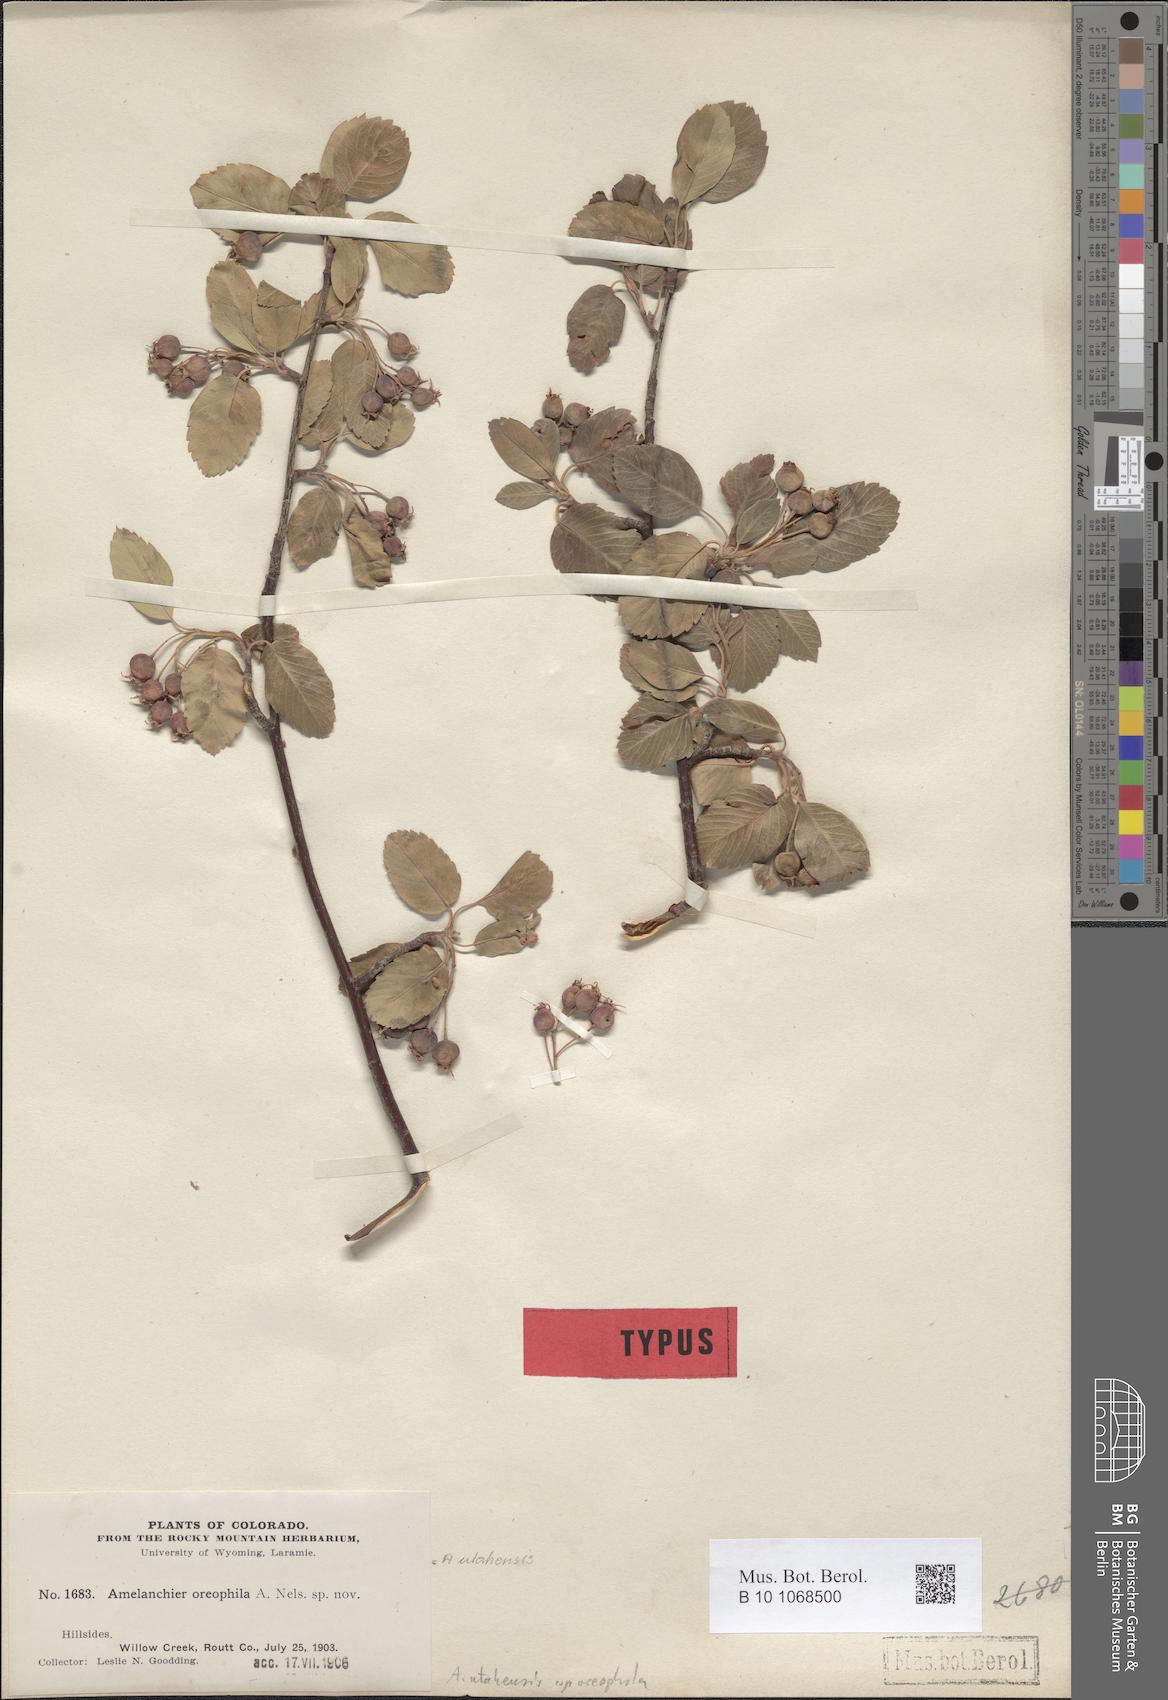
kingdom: Plantae
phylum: Tracheophyta
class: Magnoliopsida
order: Rosales
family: Rosaceae
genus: Amelanchier
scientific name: Amelanchier utahensis
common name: Utah serviceberry
